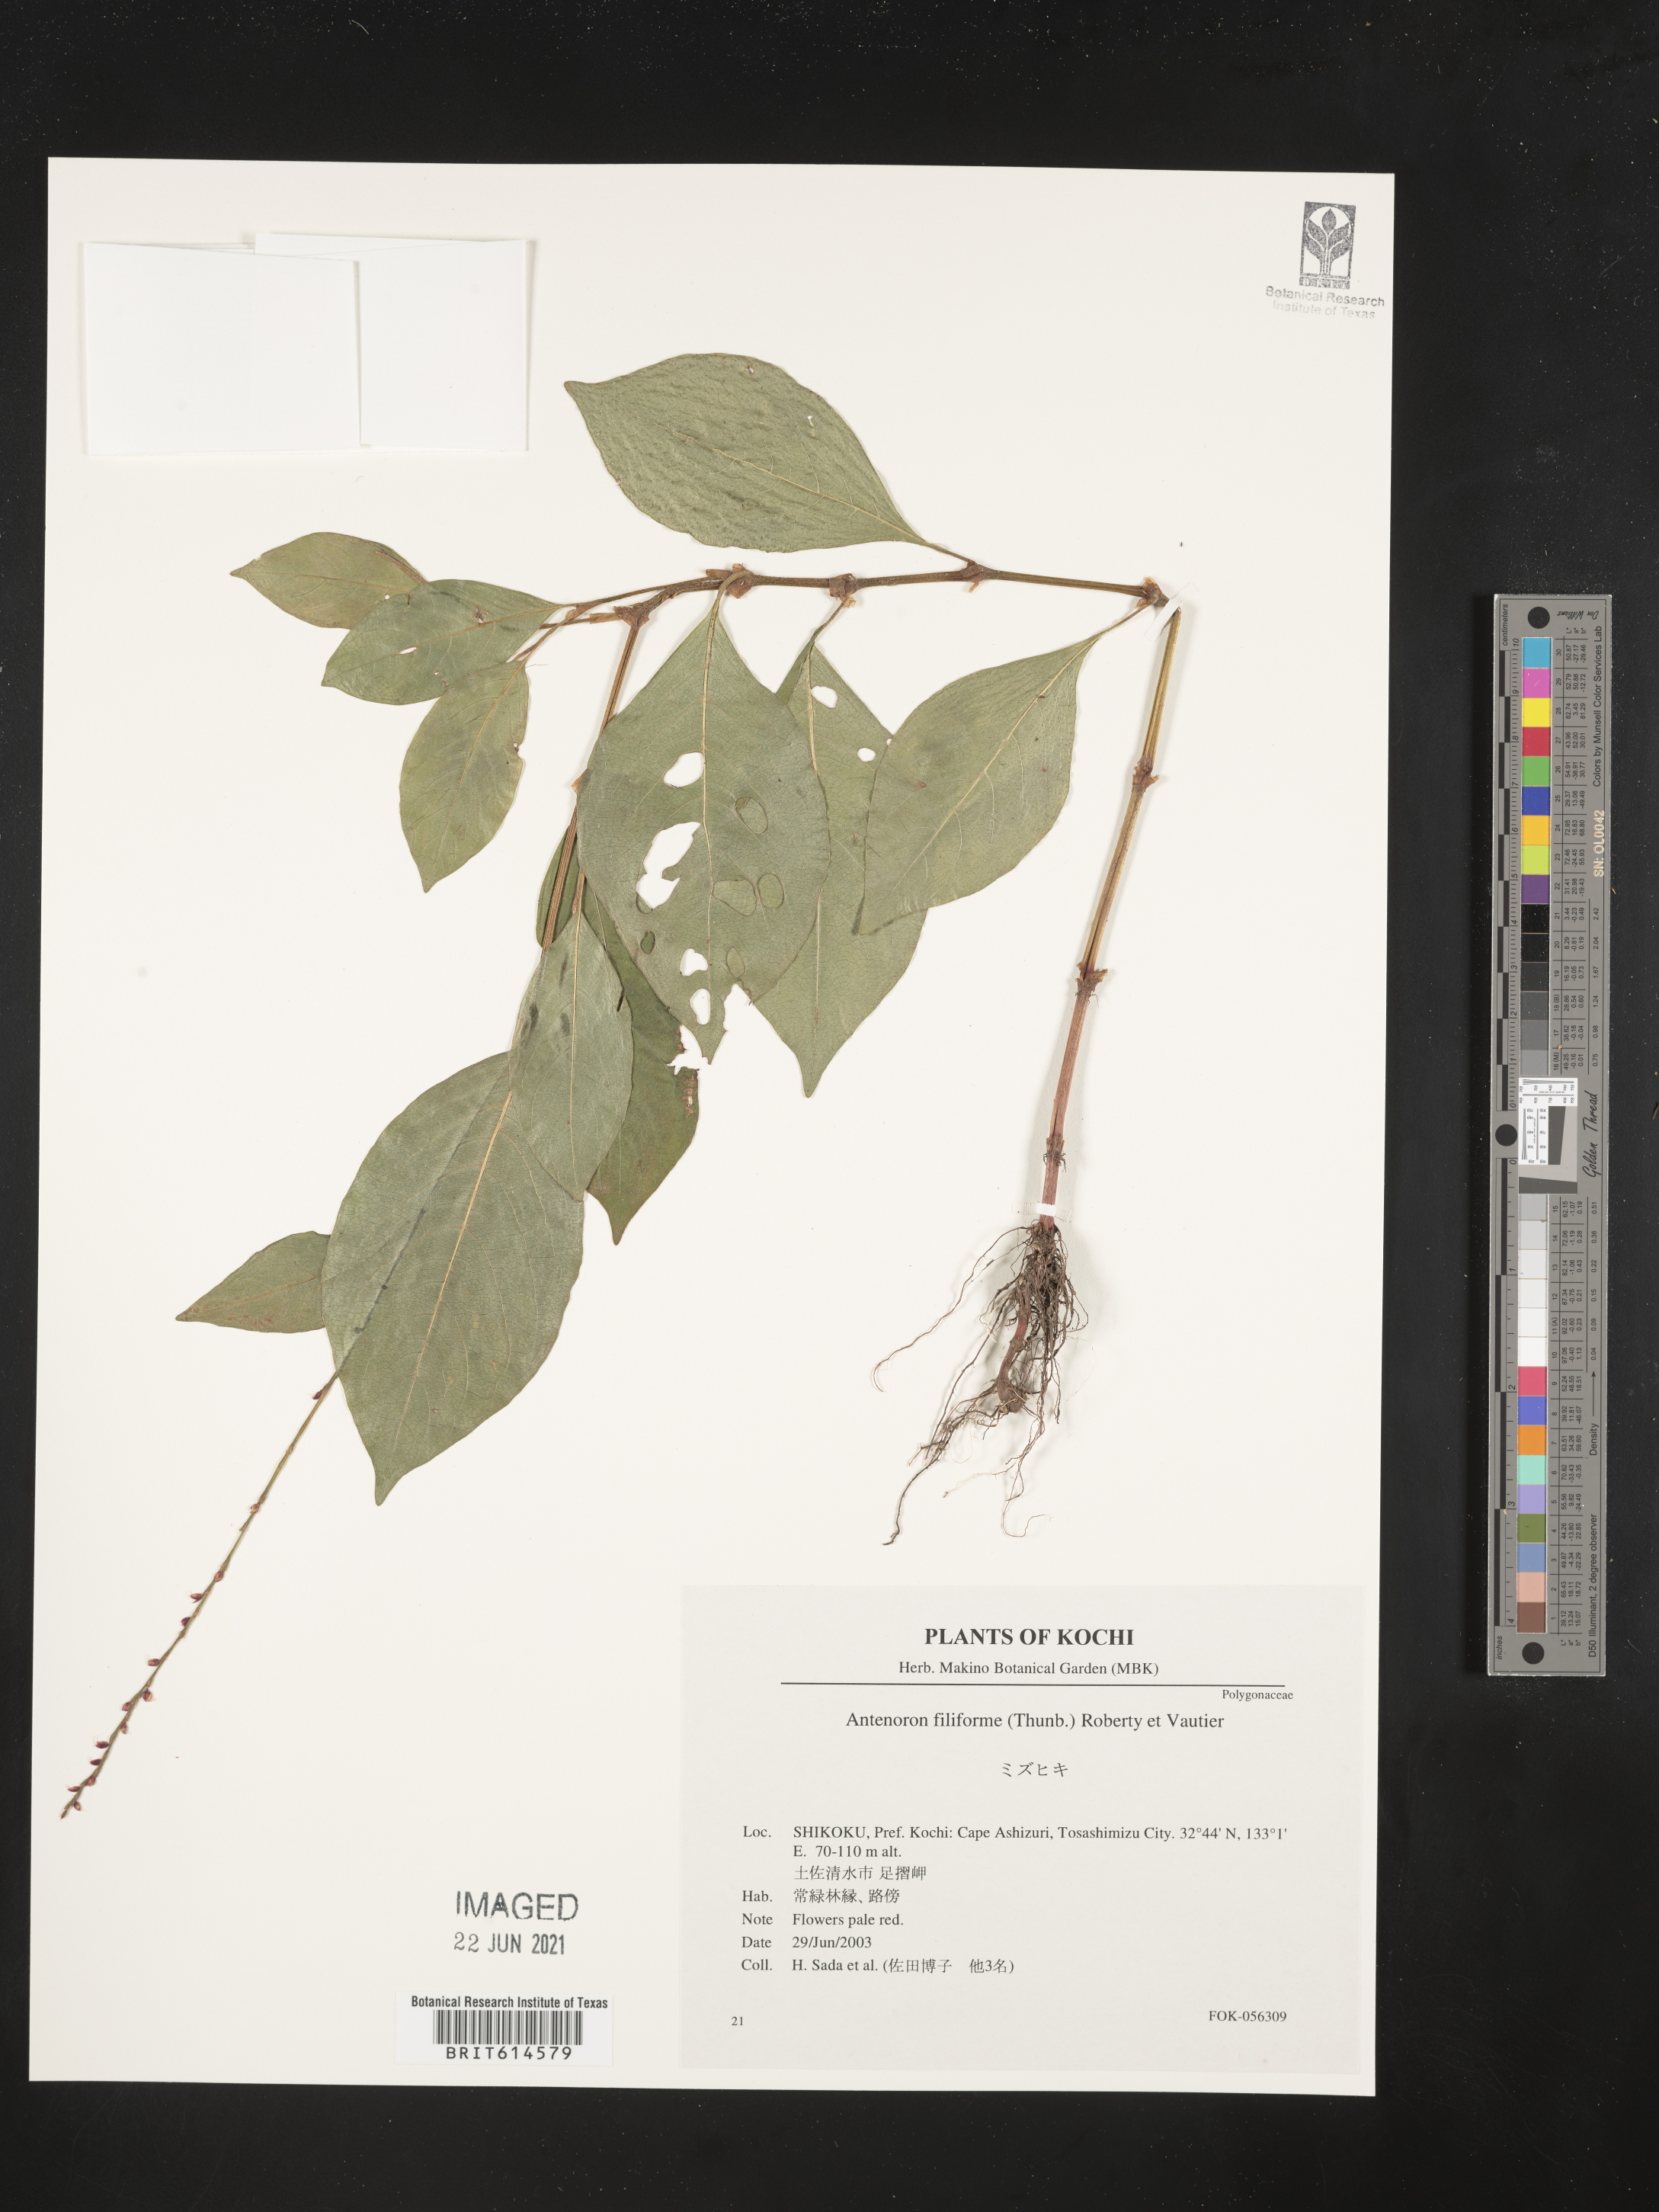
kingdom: Plantae
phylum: Tracheophyta
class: Magnoliopsida
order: Caryophyllales
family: Polygonaceae
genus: Persicaria
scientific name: Persicaria filiformis
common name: Asian jumpseed
